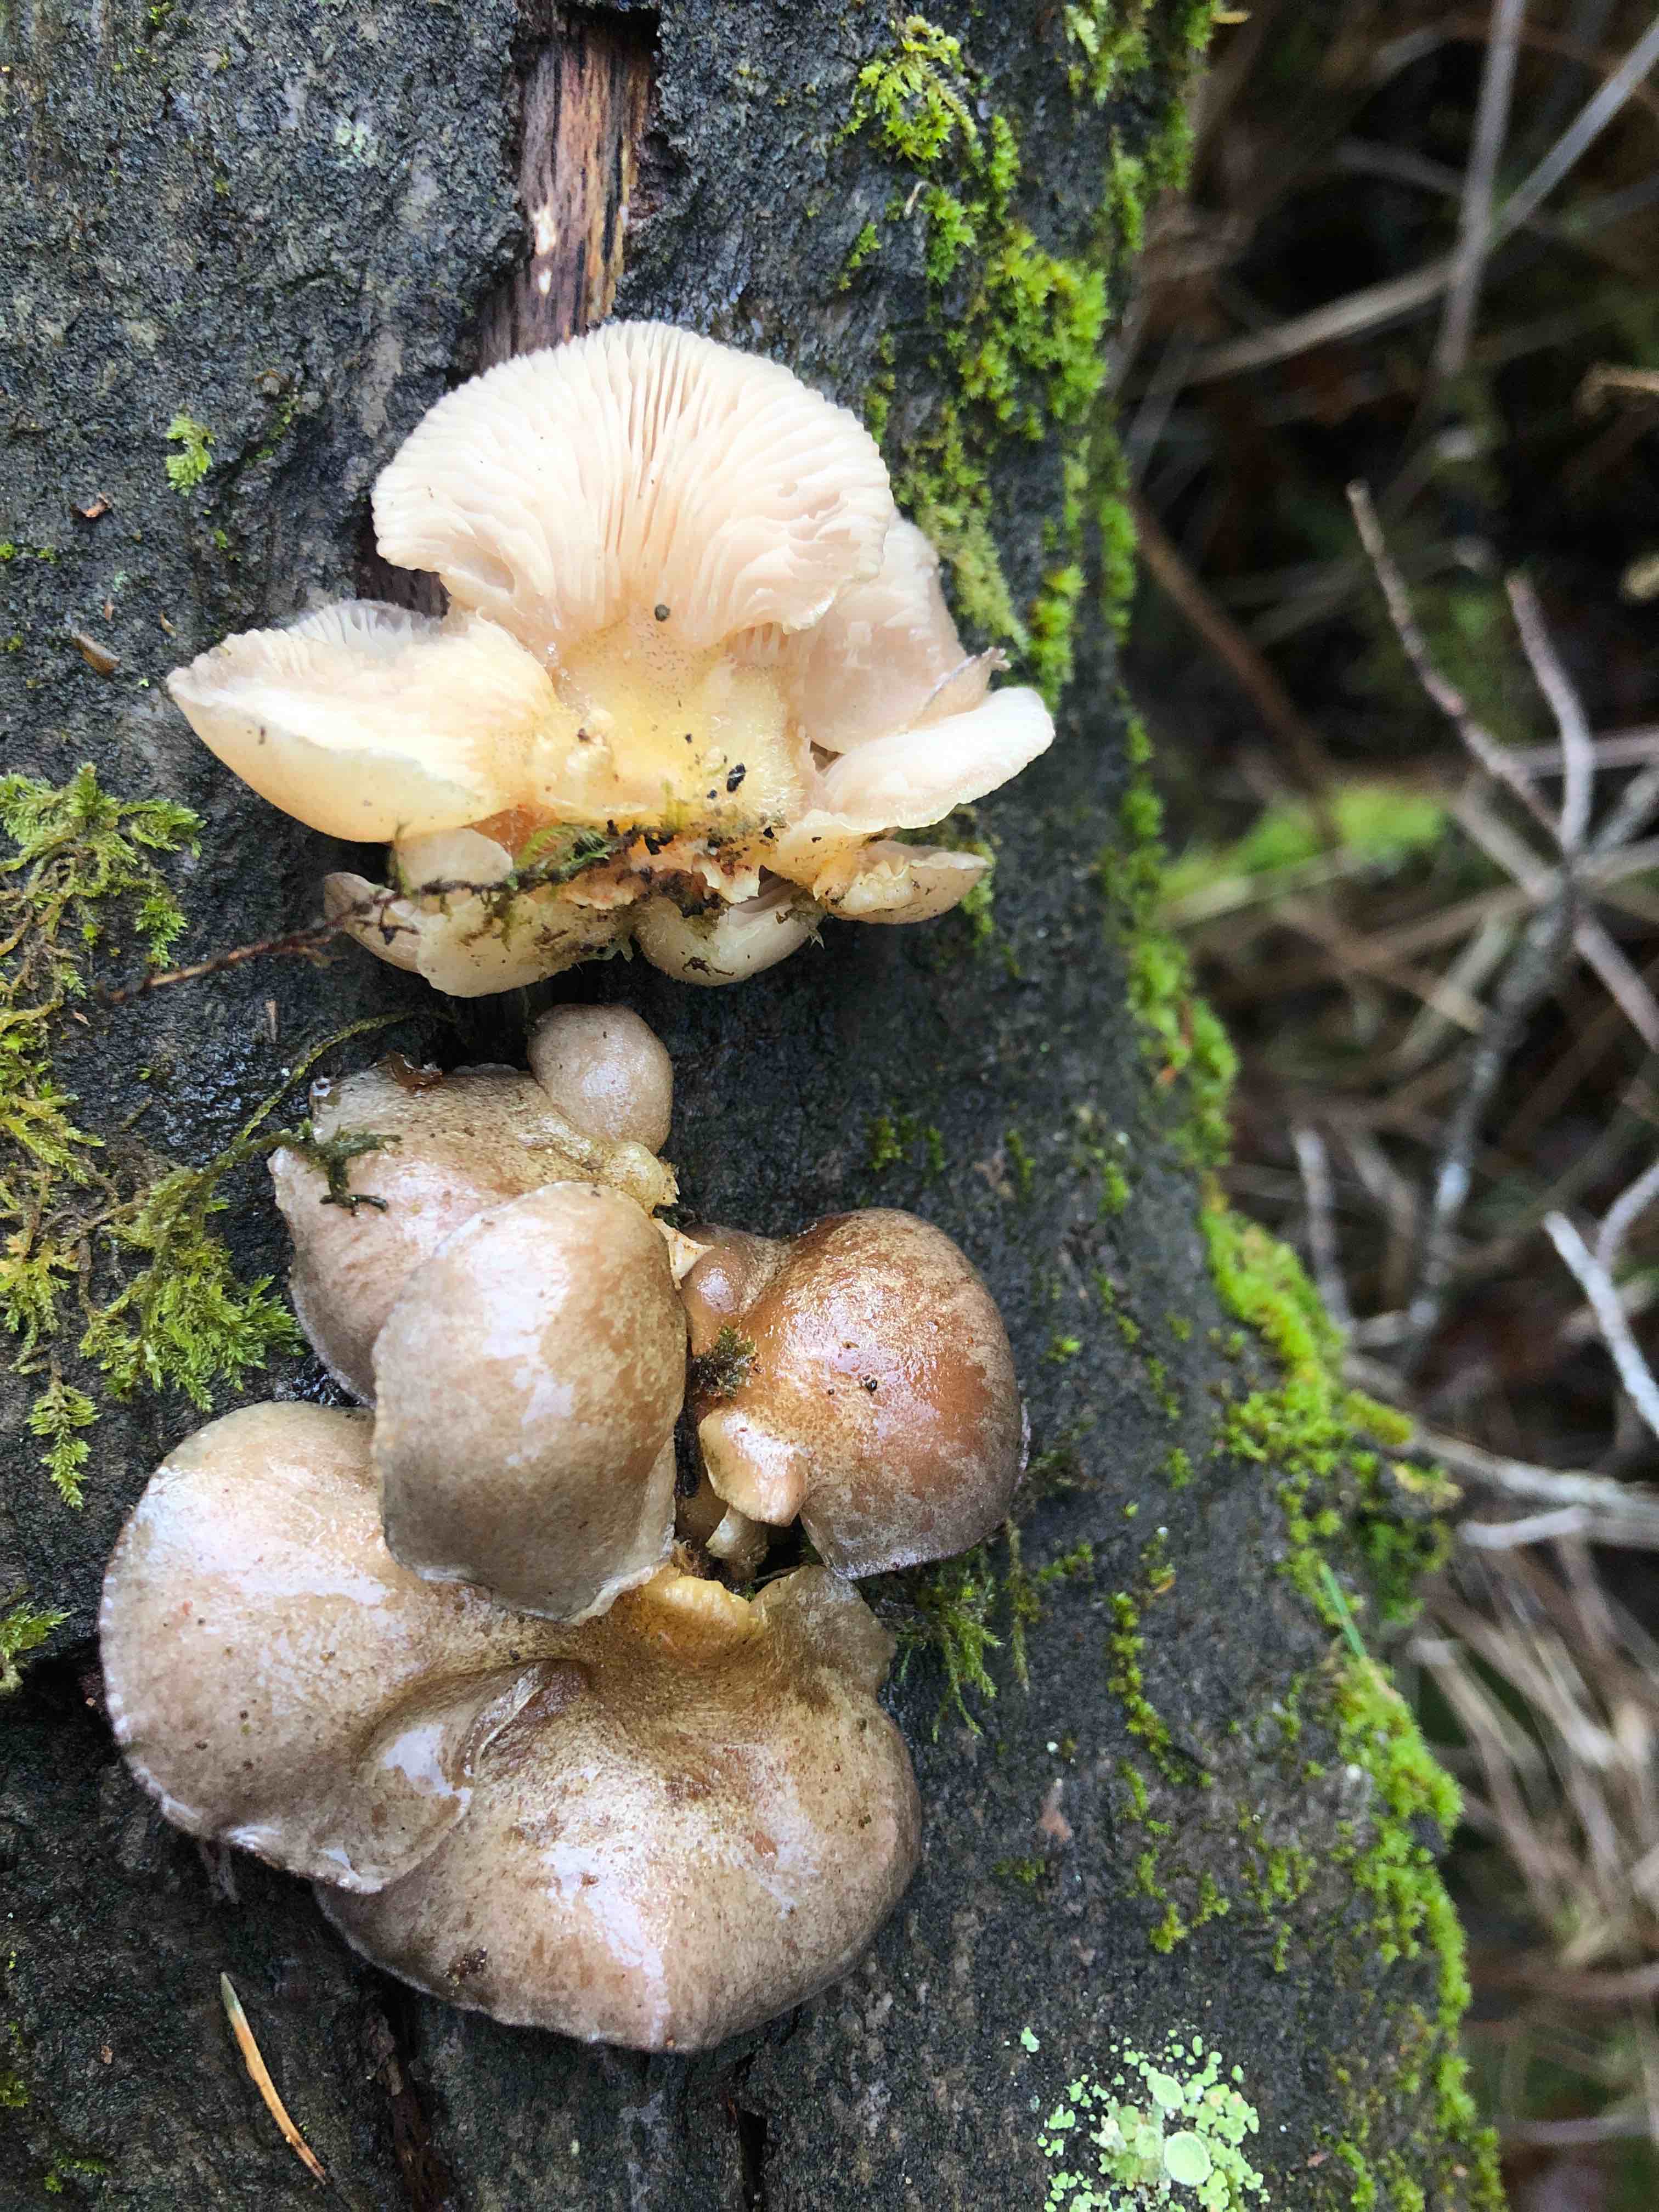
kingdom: Fungi
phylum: Basidiomycota
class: Agaricomycetes
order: Agaricales
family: Sarcomyxaceae
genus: Sarcomyxa
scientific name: Sarcomyxa serotina
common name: gummihat
